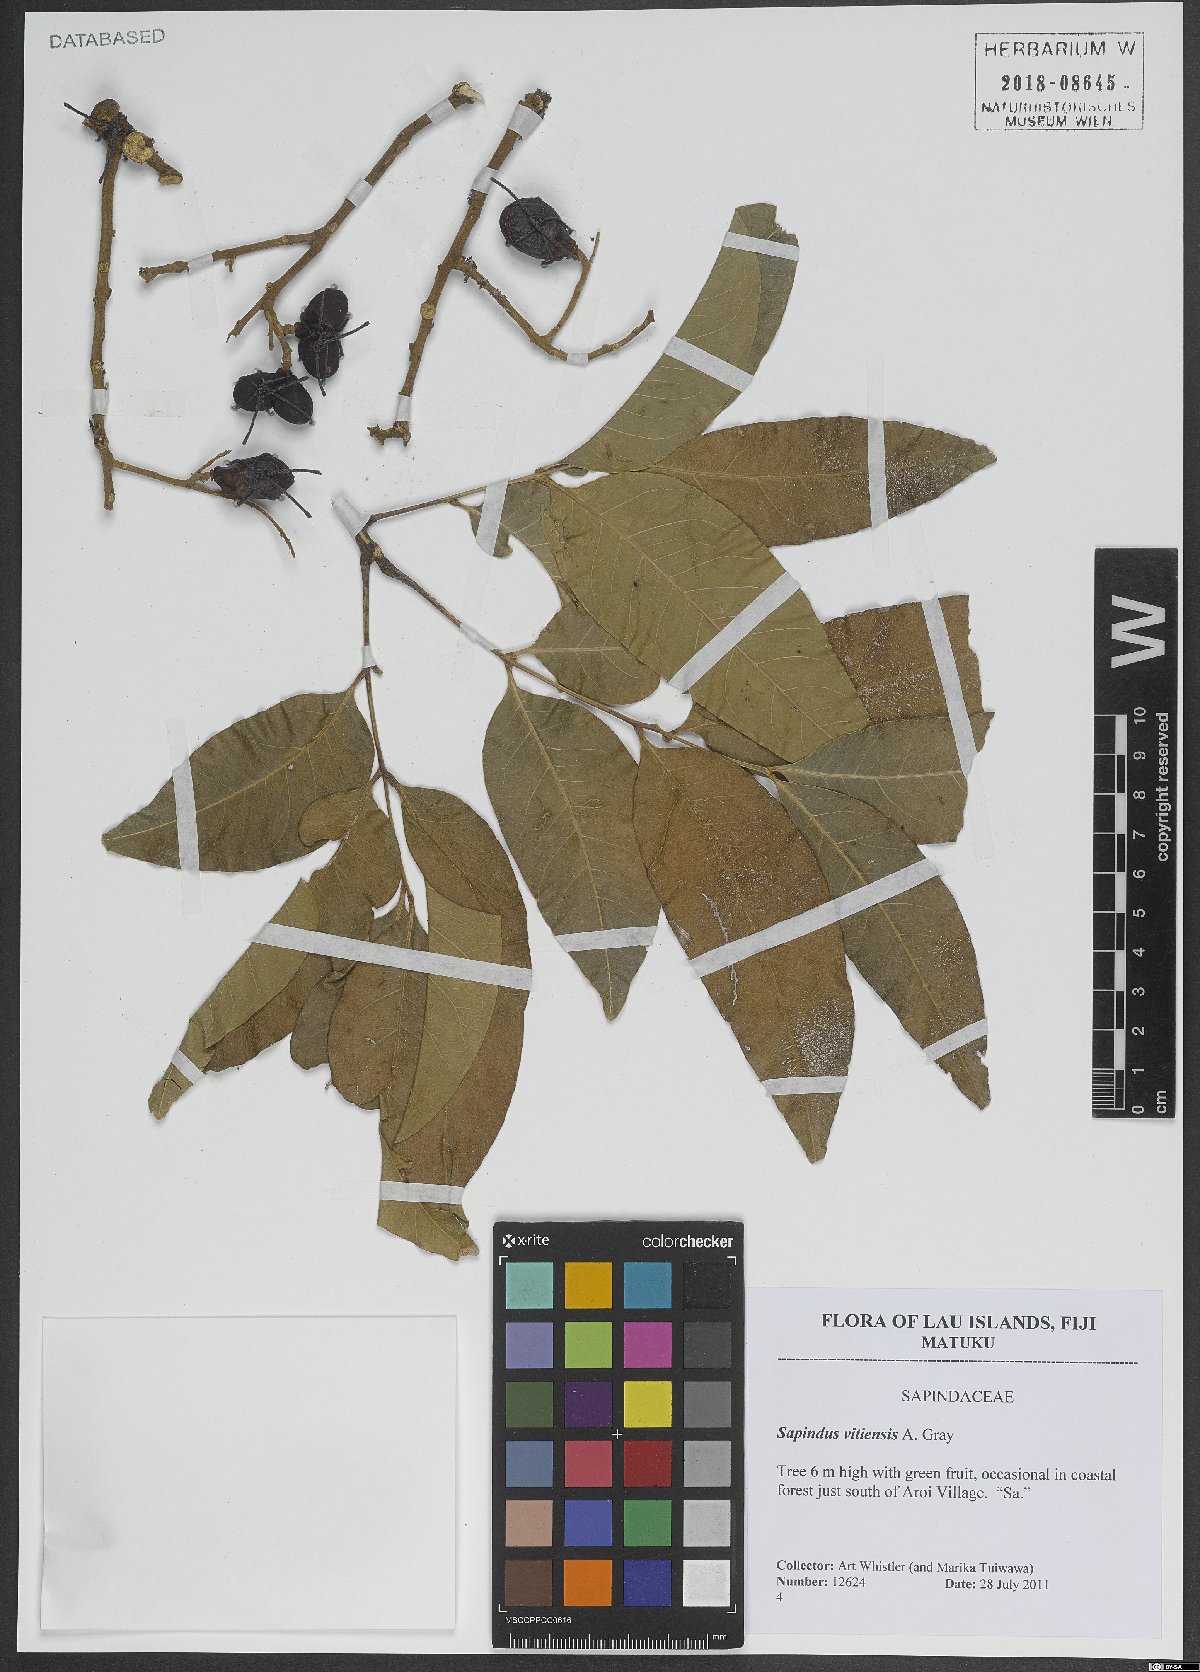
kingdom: Plantae
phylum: Tracheophyta
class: Magnoliopsida
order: Sapindales
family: Sapindaceae
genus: Sapindus
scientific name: Sapindus saponaria
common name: Wingleaf soapberry
